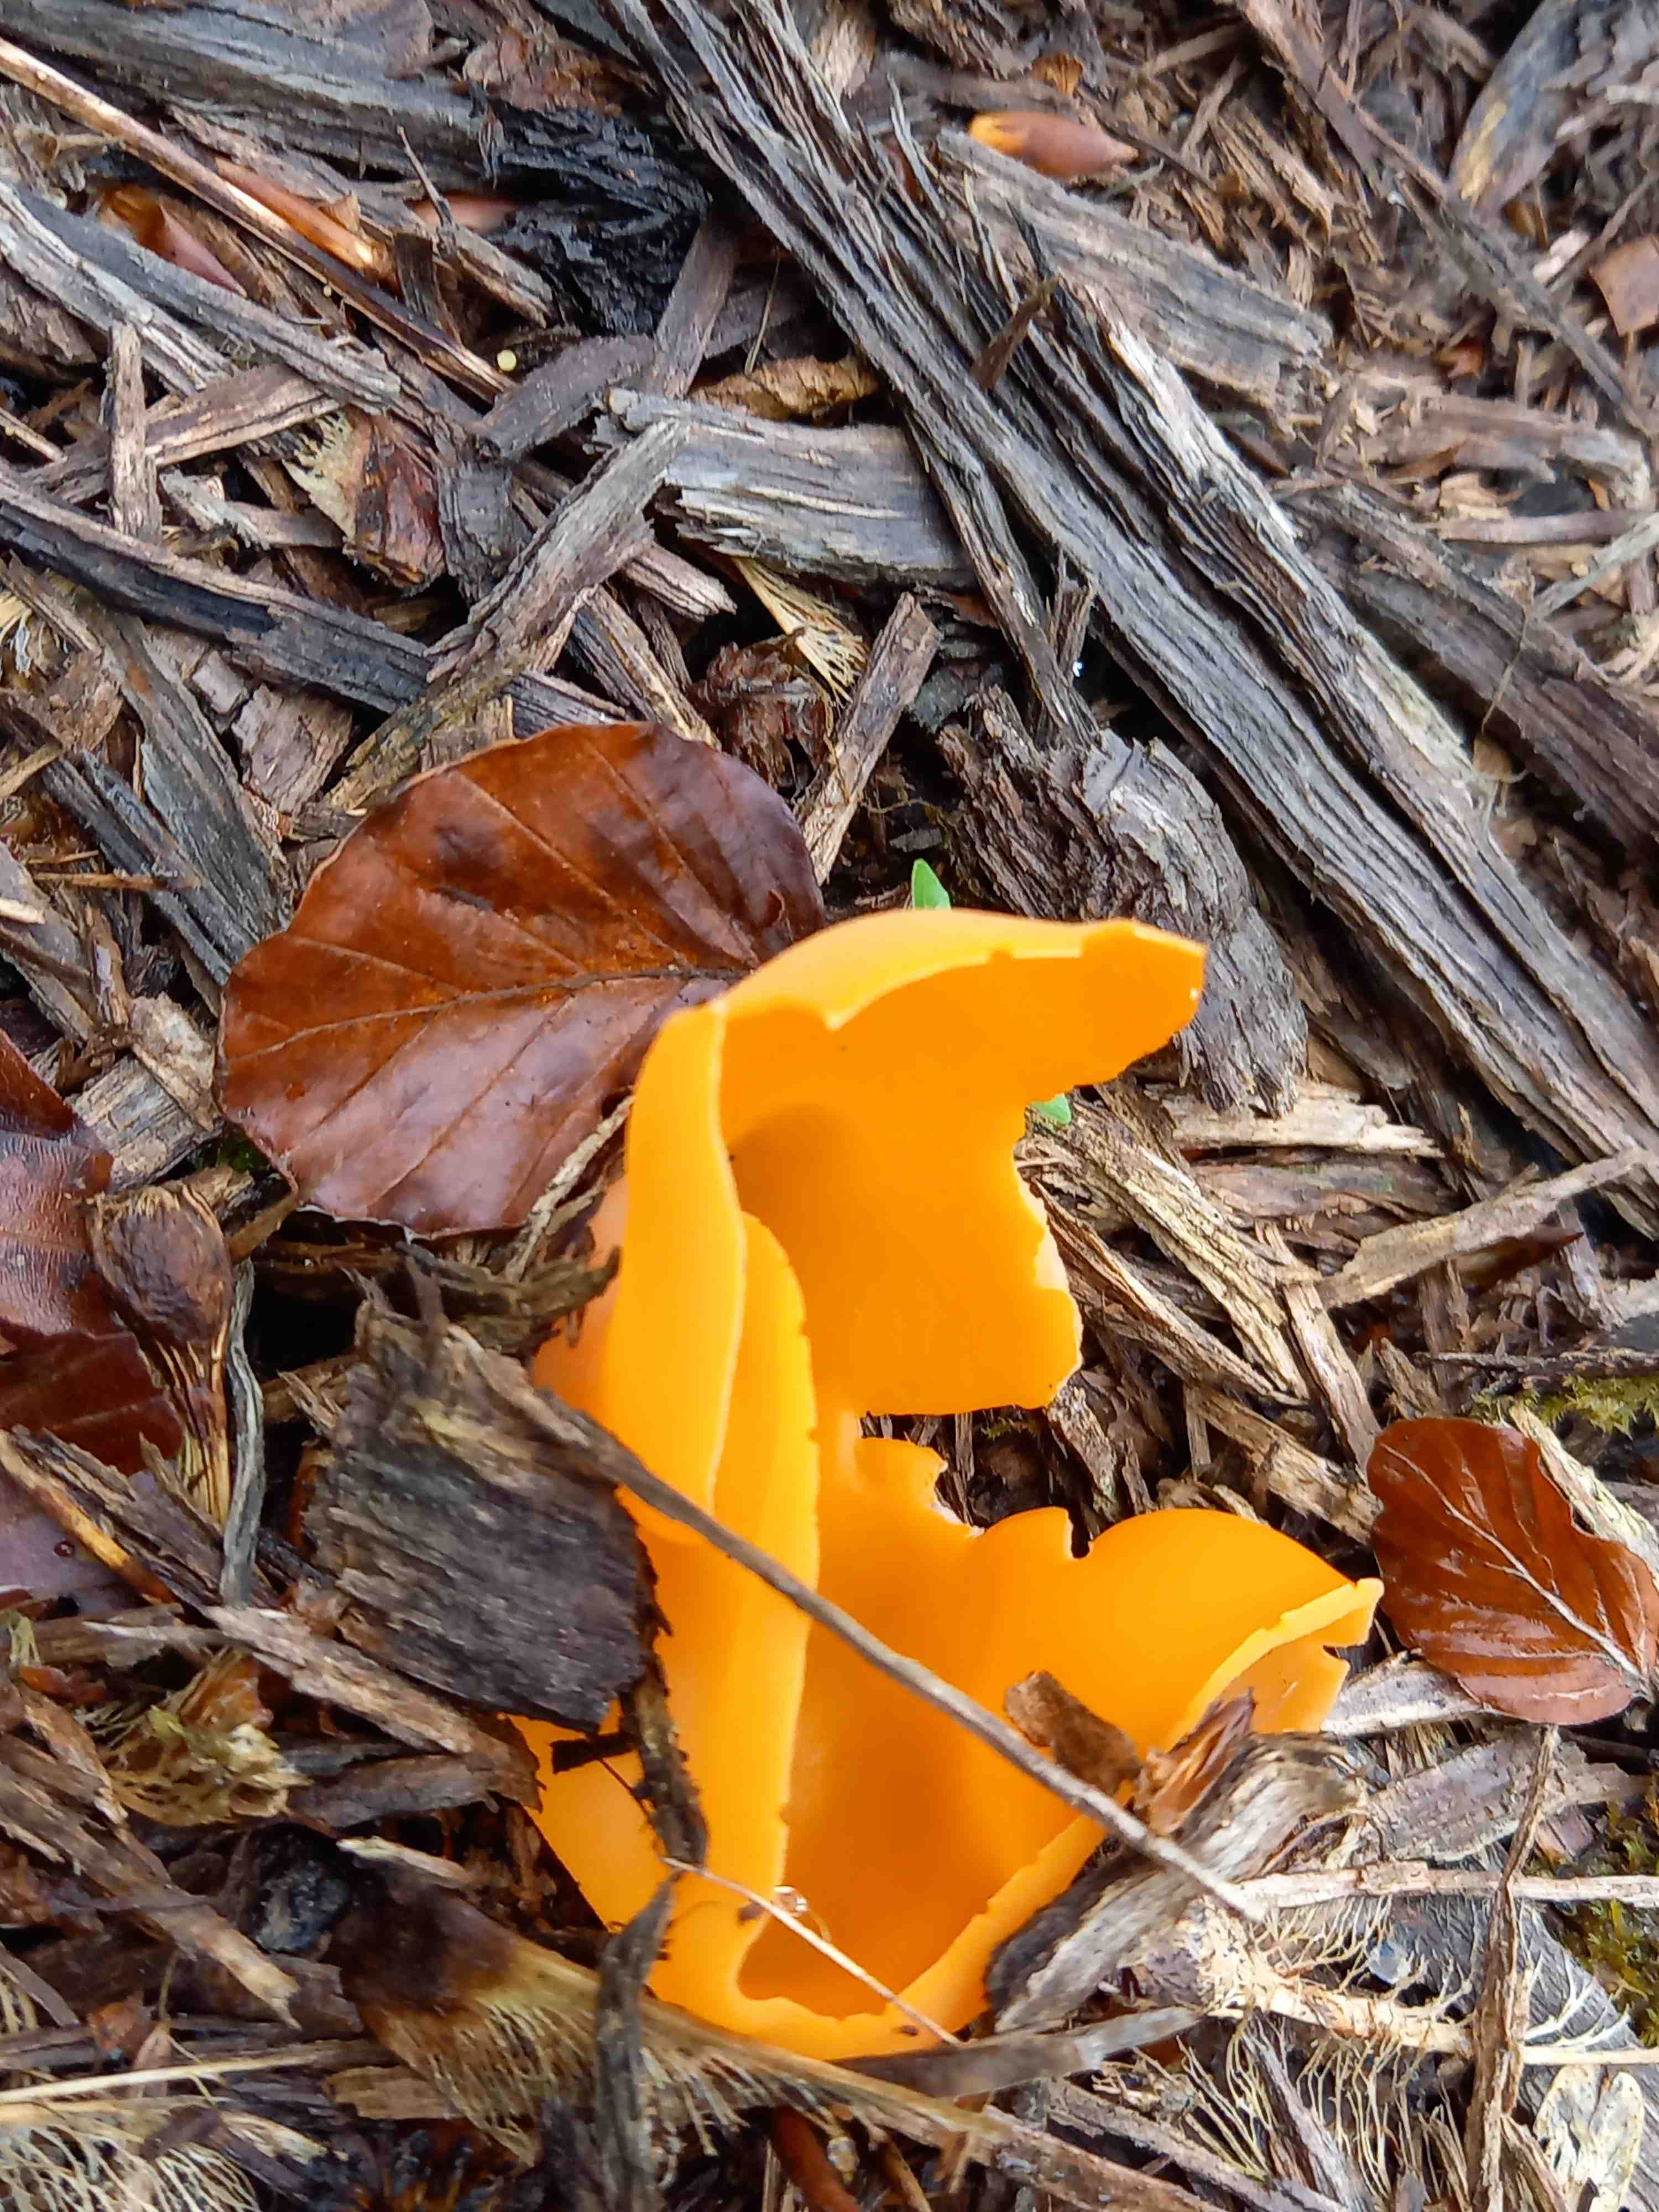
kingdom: Fungi
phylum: Ascomycota
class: Pezizomycetes
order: Pezizales
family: Pyronemataceae
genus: Aleuria
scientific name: Aleuria aurantia
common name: almindelig orangebæger
